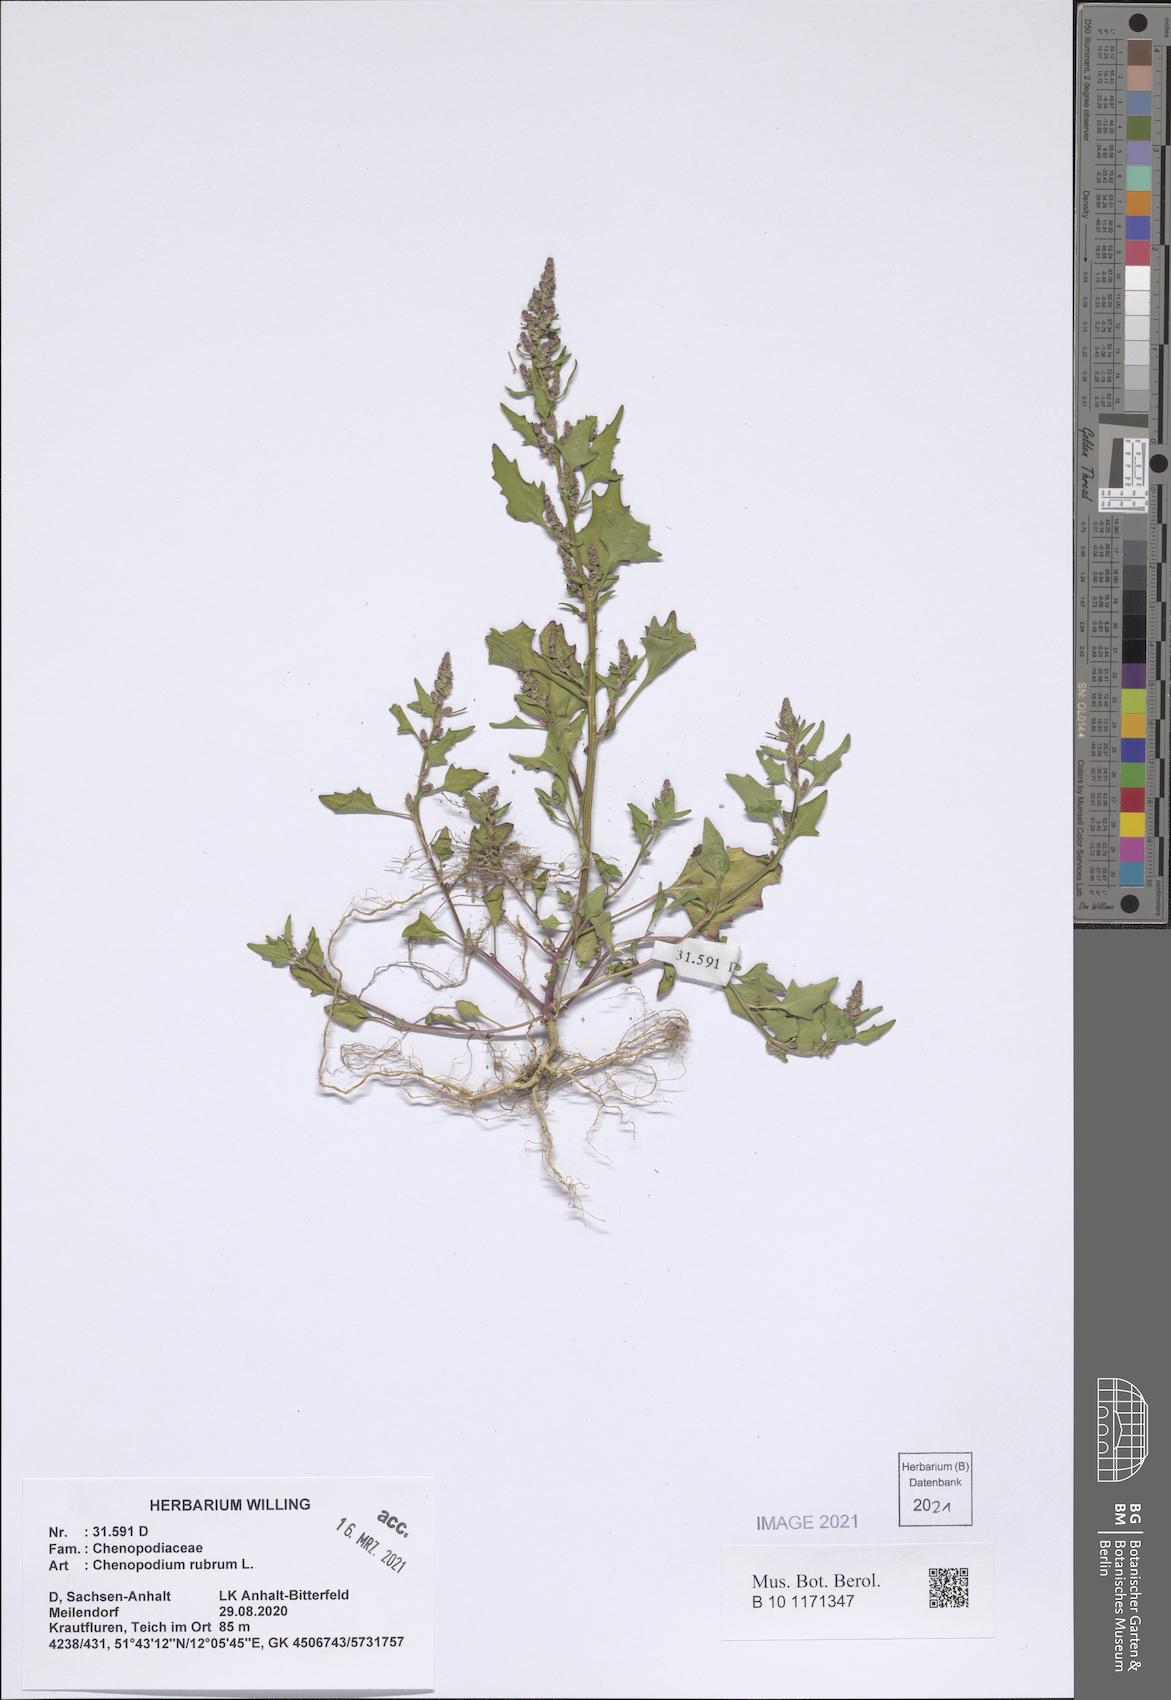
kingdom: Plantae
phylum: Tracheophyta
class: Magnoliopsida
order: Caryophyllales
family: Amaranthaceae
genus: Oxybasis
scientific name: Oxybasis rubra
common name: Red goosefoot
